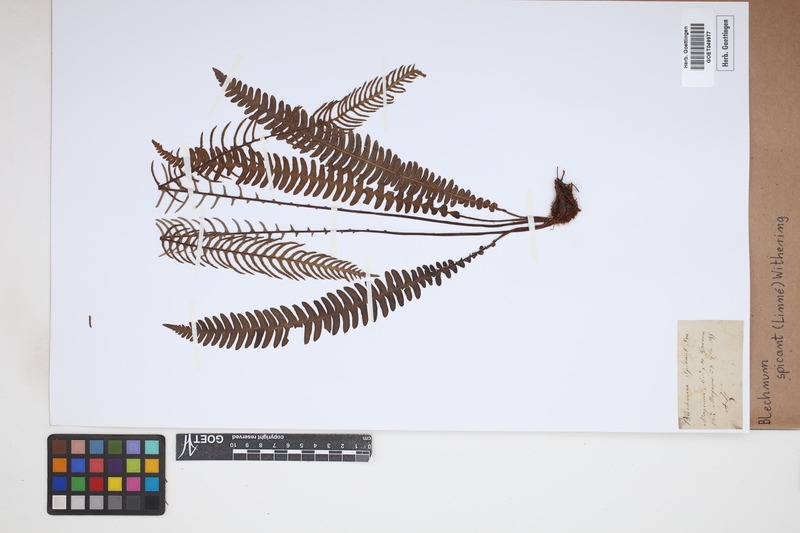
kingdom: Plantae
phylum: Tracheophyta
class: Polypodiopsida
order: Polypodiales
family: Blechnaceae
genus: Struthiopteris
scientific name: Struthiopteris spicant
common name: Deer fern
